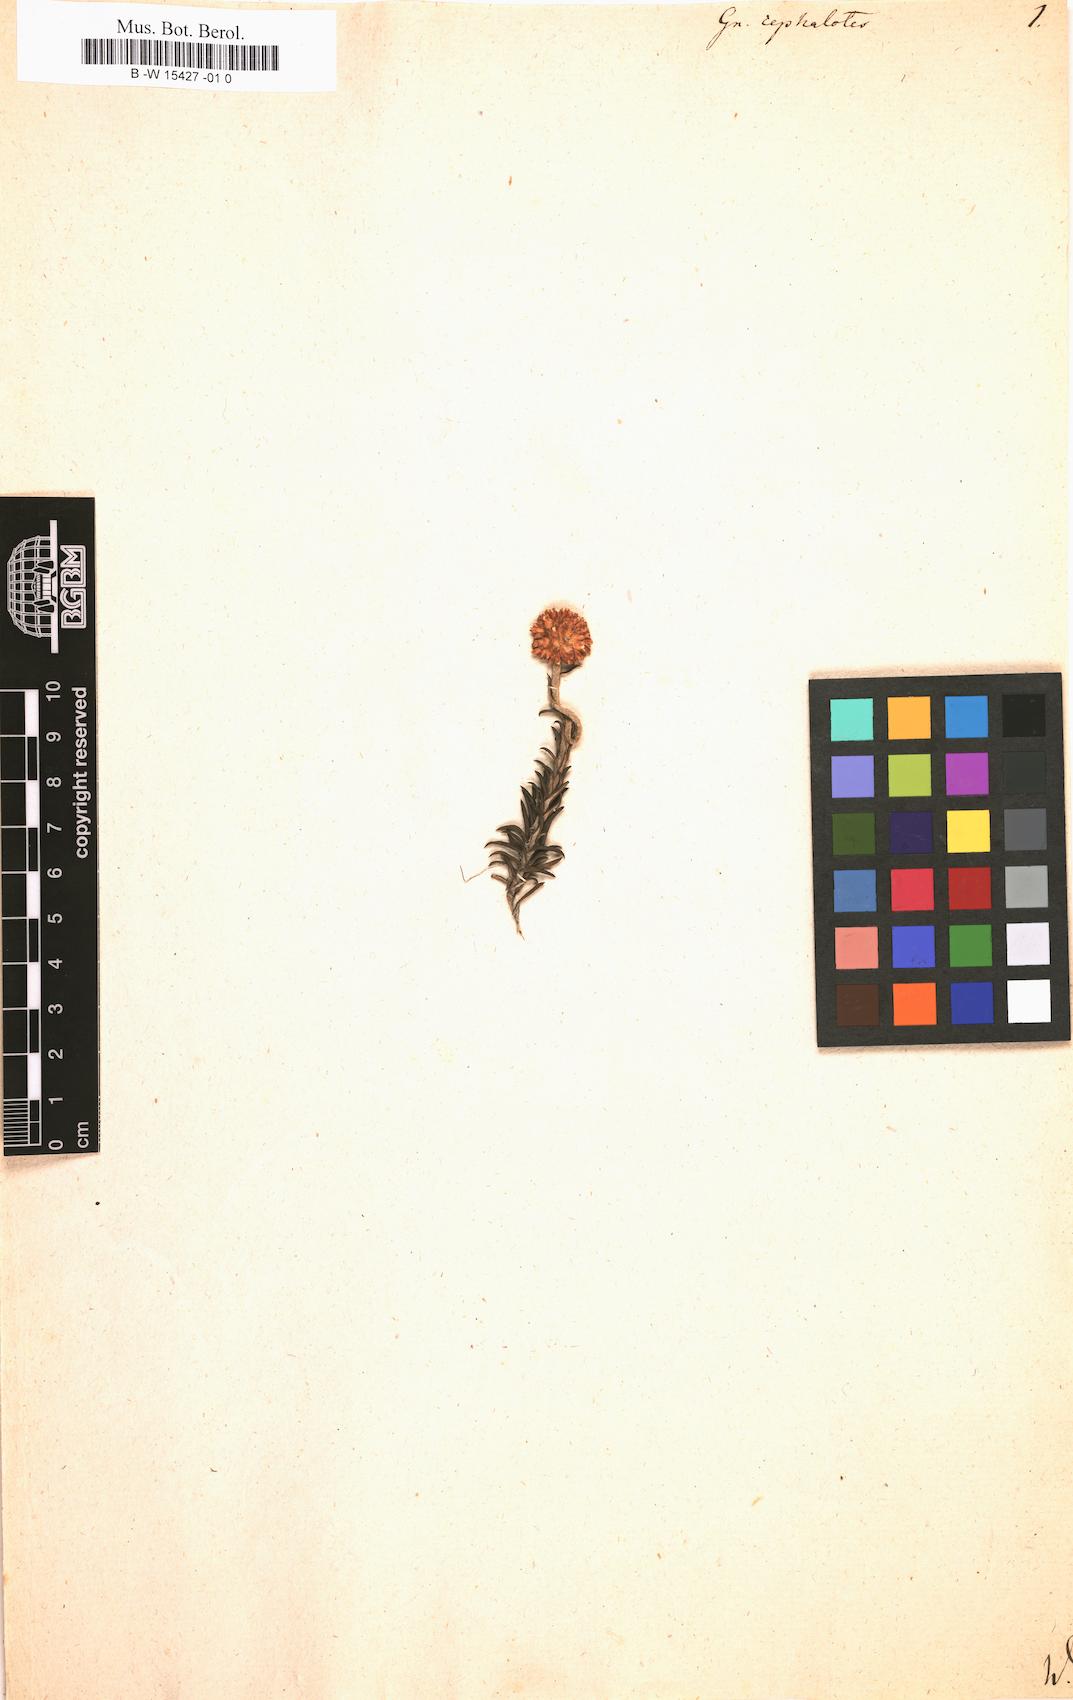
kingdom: Plantae
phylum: Tracheophyta
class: Magnoliopsida
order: Asterales
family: Asteraceae
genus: Metalasia
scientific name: Metalasia cephalotes
